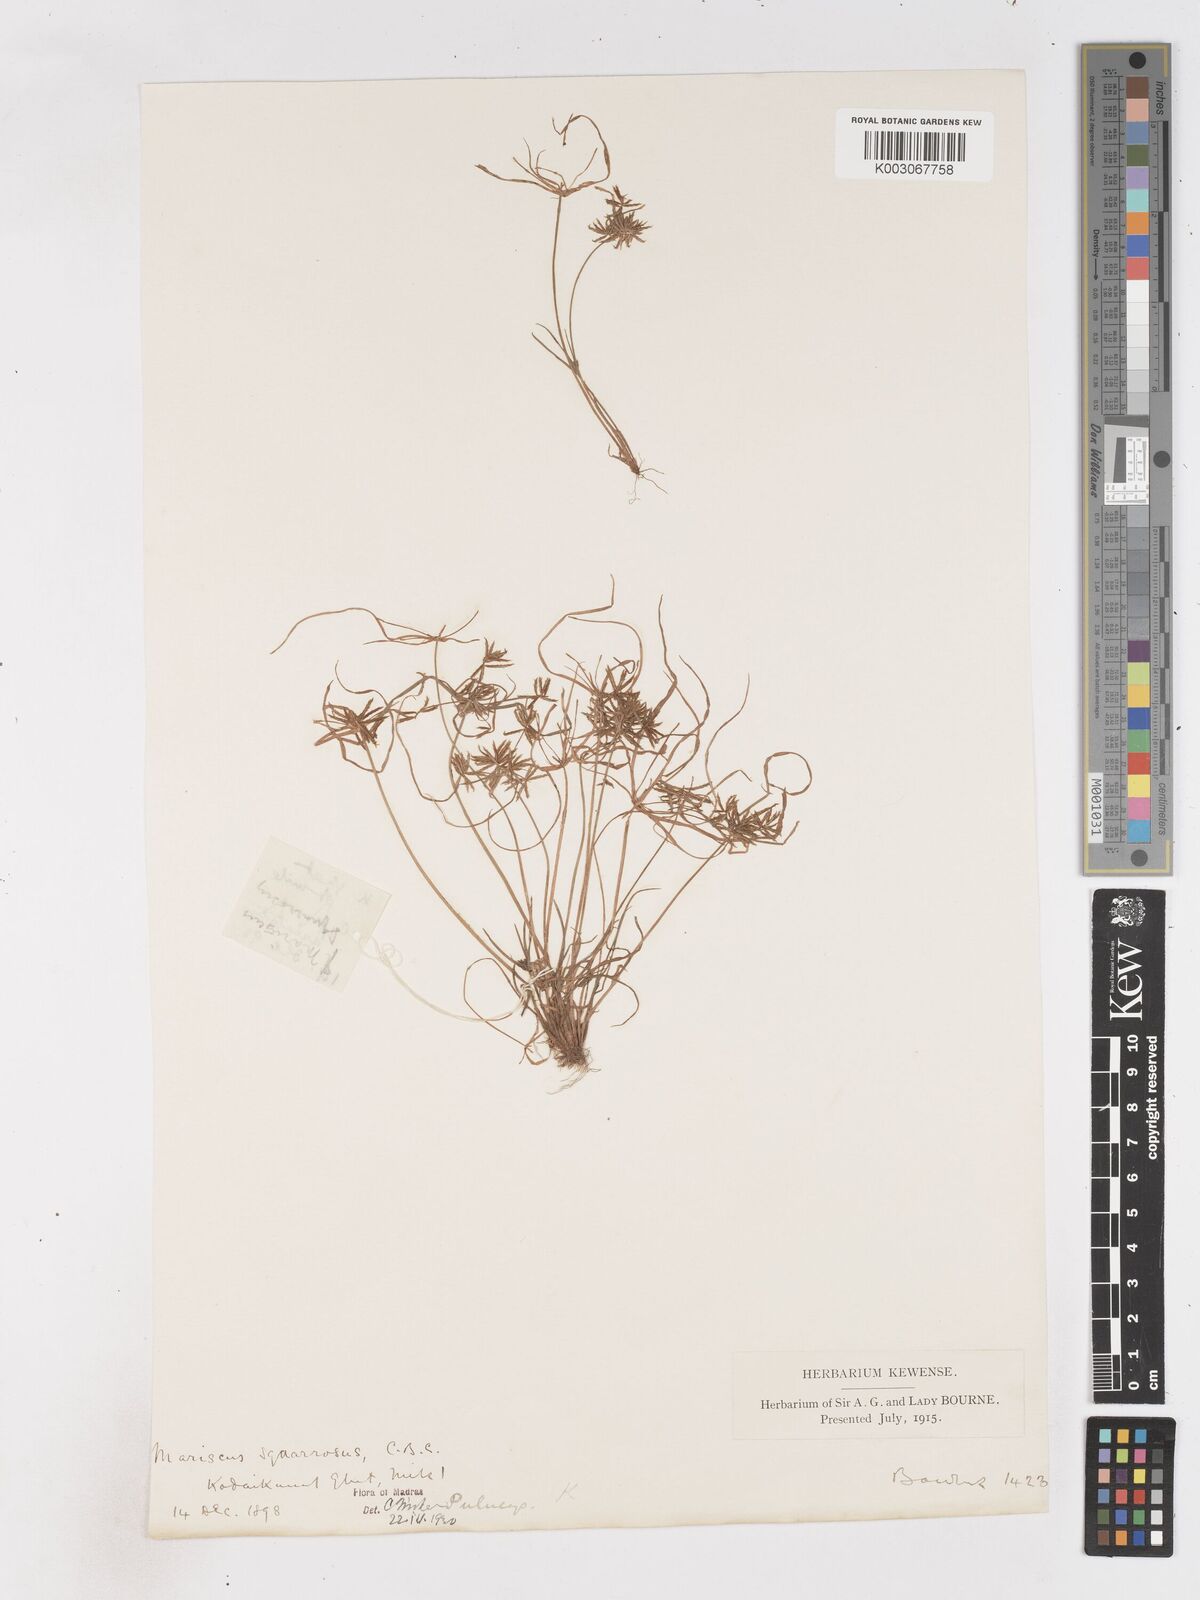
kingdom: Plantae
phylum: Tracheophyta
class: Liliopsida
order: Poales
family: Cyperaceae
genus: Cyperus
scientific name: Cyperus maderaspatanus
